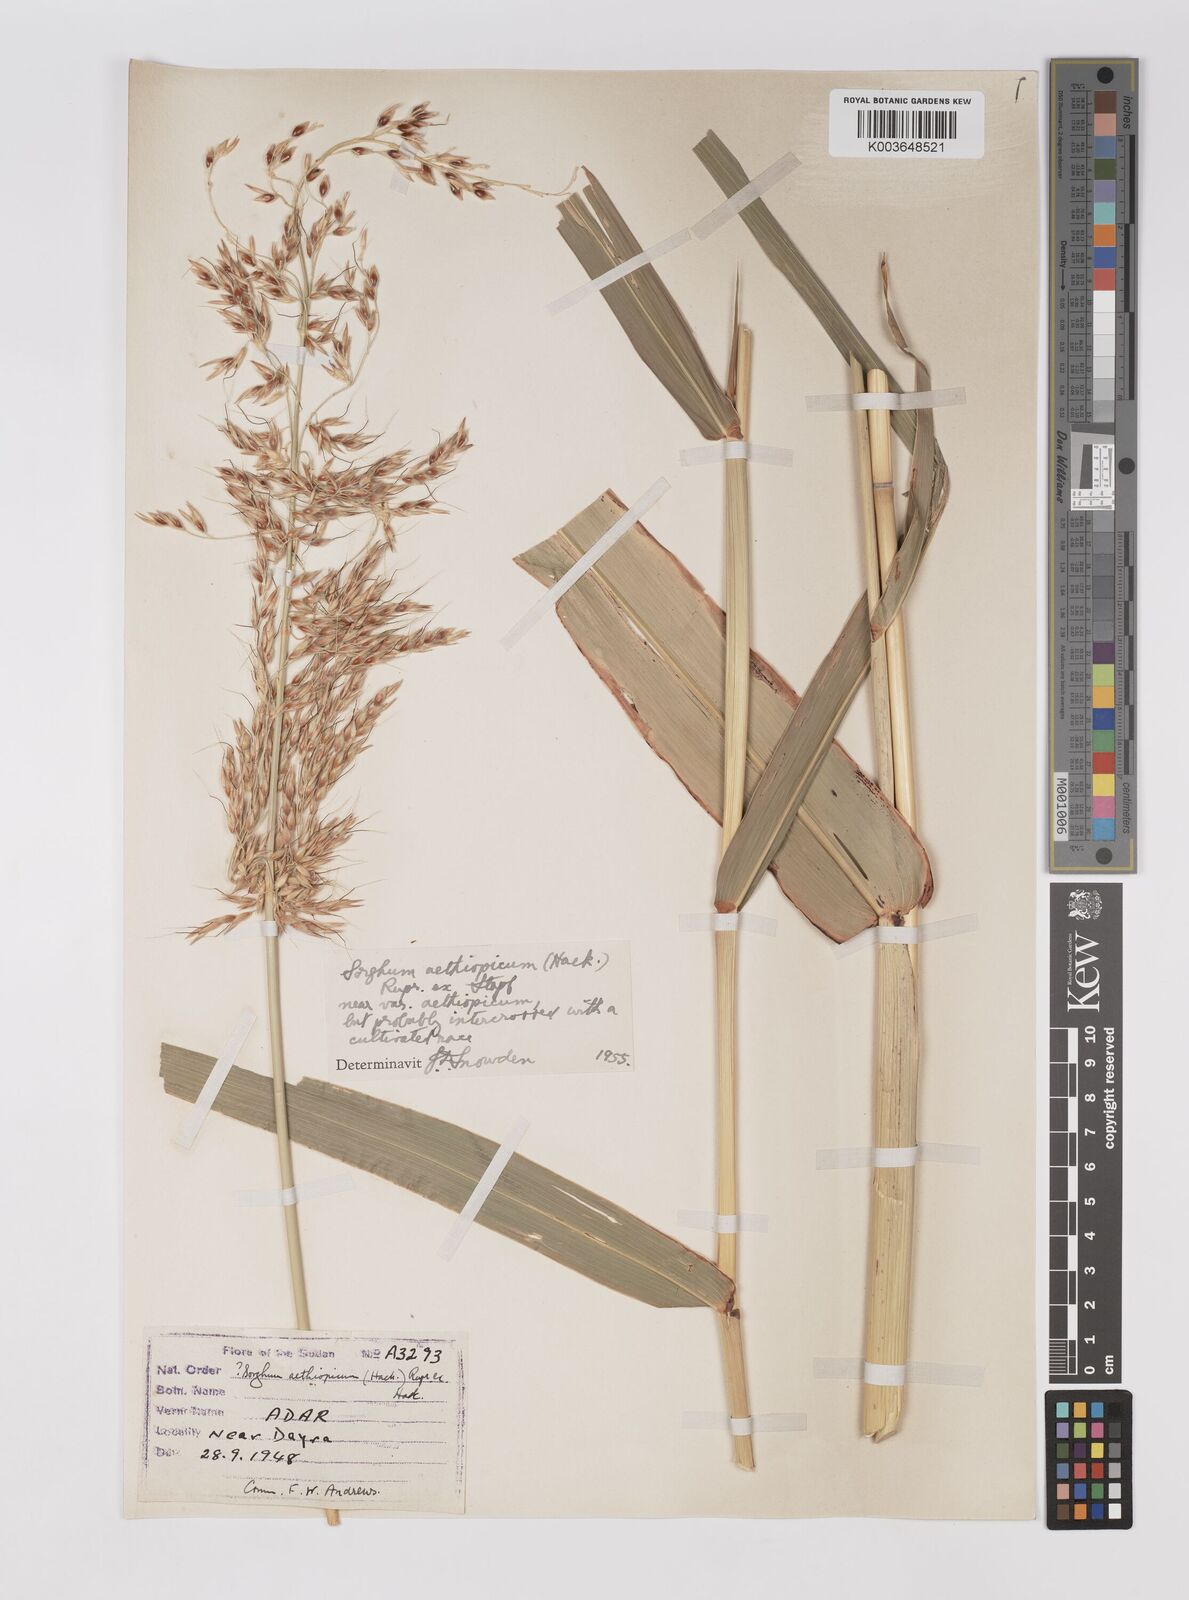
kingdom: Plantae
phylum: Tracheophyta
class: Liliopsida
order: Poales
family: Poaceae
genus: Sorghum
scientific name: Sorghum drummondii
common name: Sudangrass
